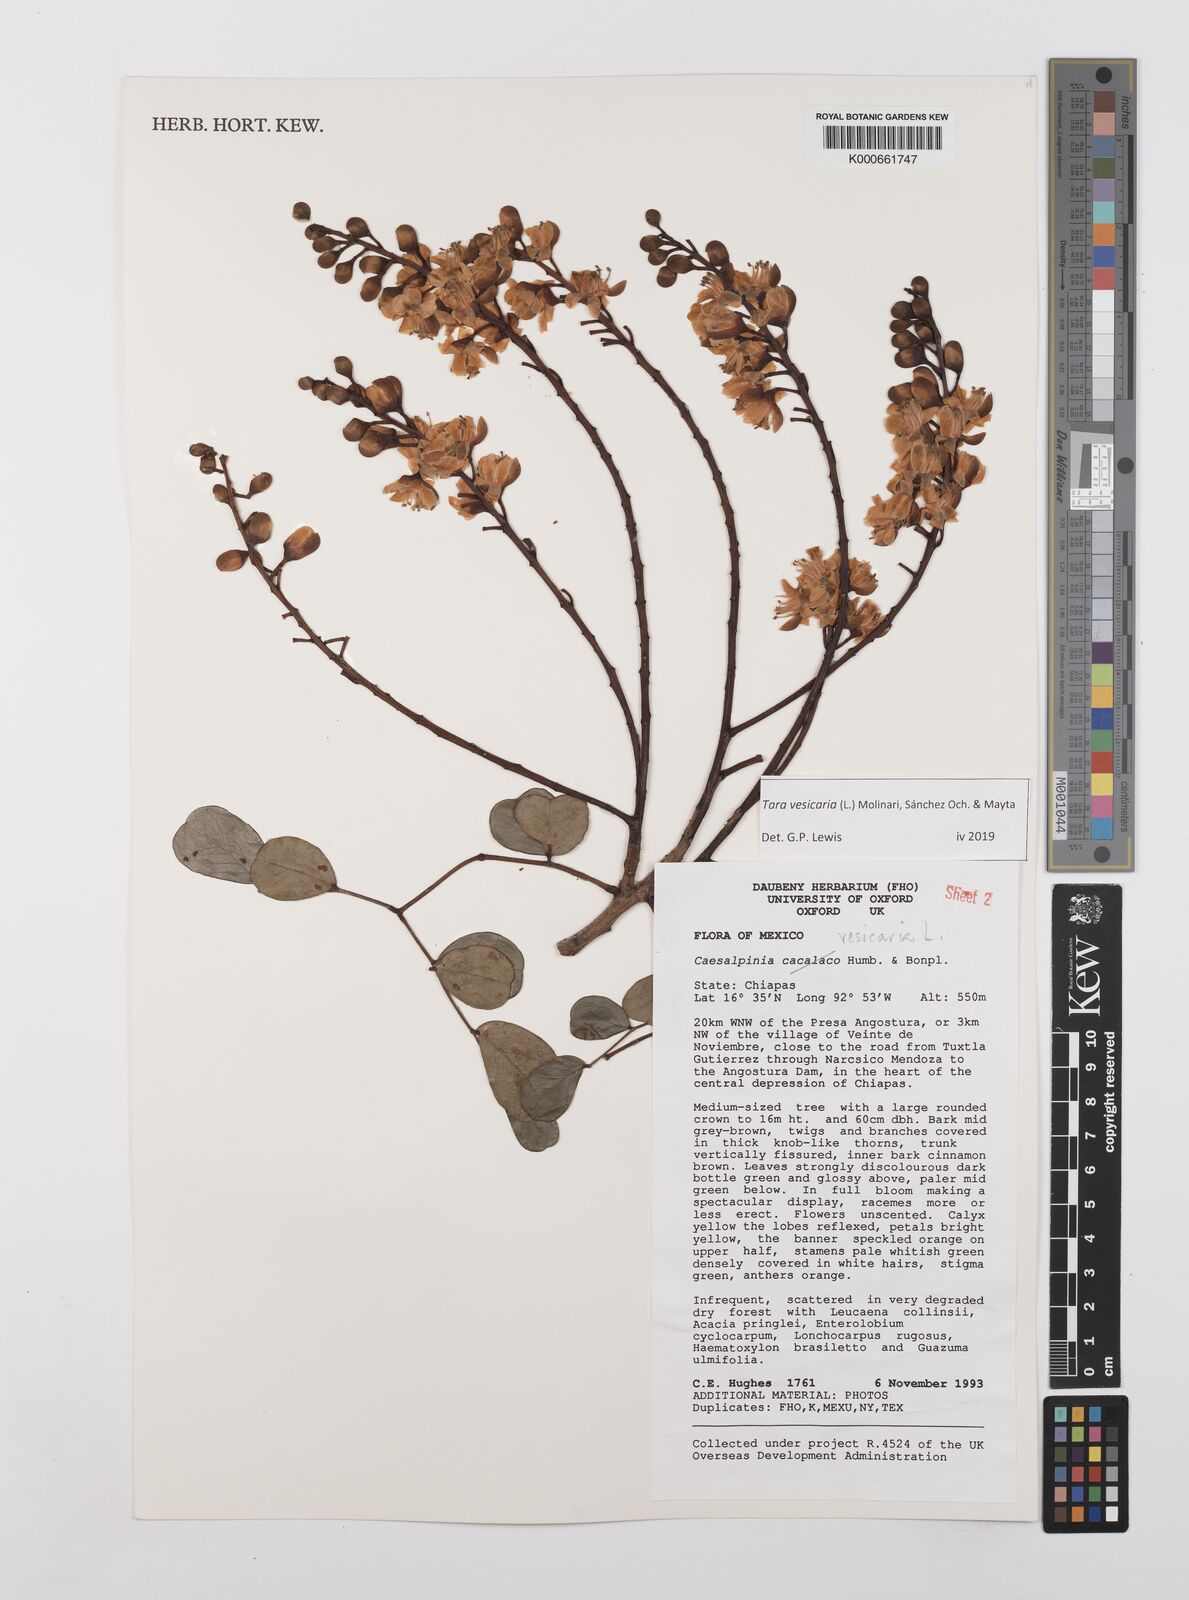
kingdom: Plantae
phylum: Tracheophyta
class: Magnoliopsida
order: Fabales
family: Fabaceae
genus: Tara
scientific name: Tara vesicaria
